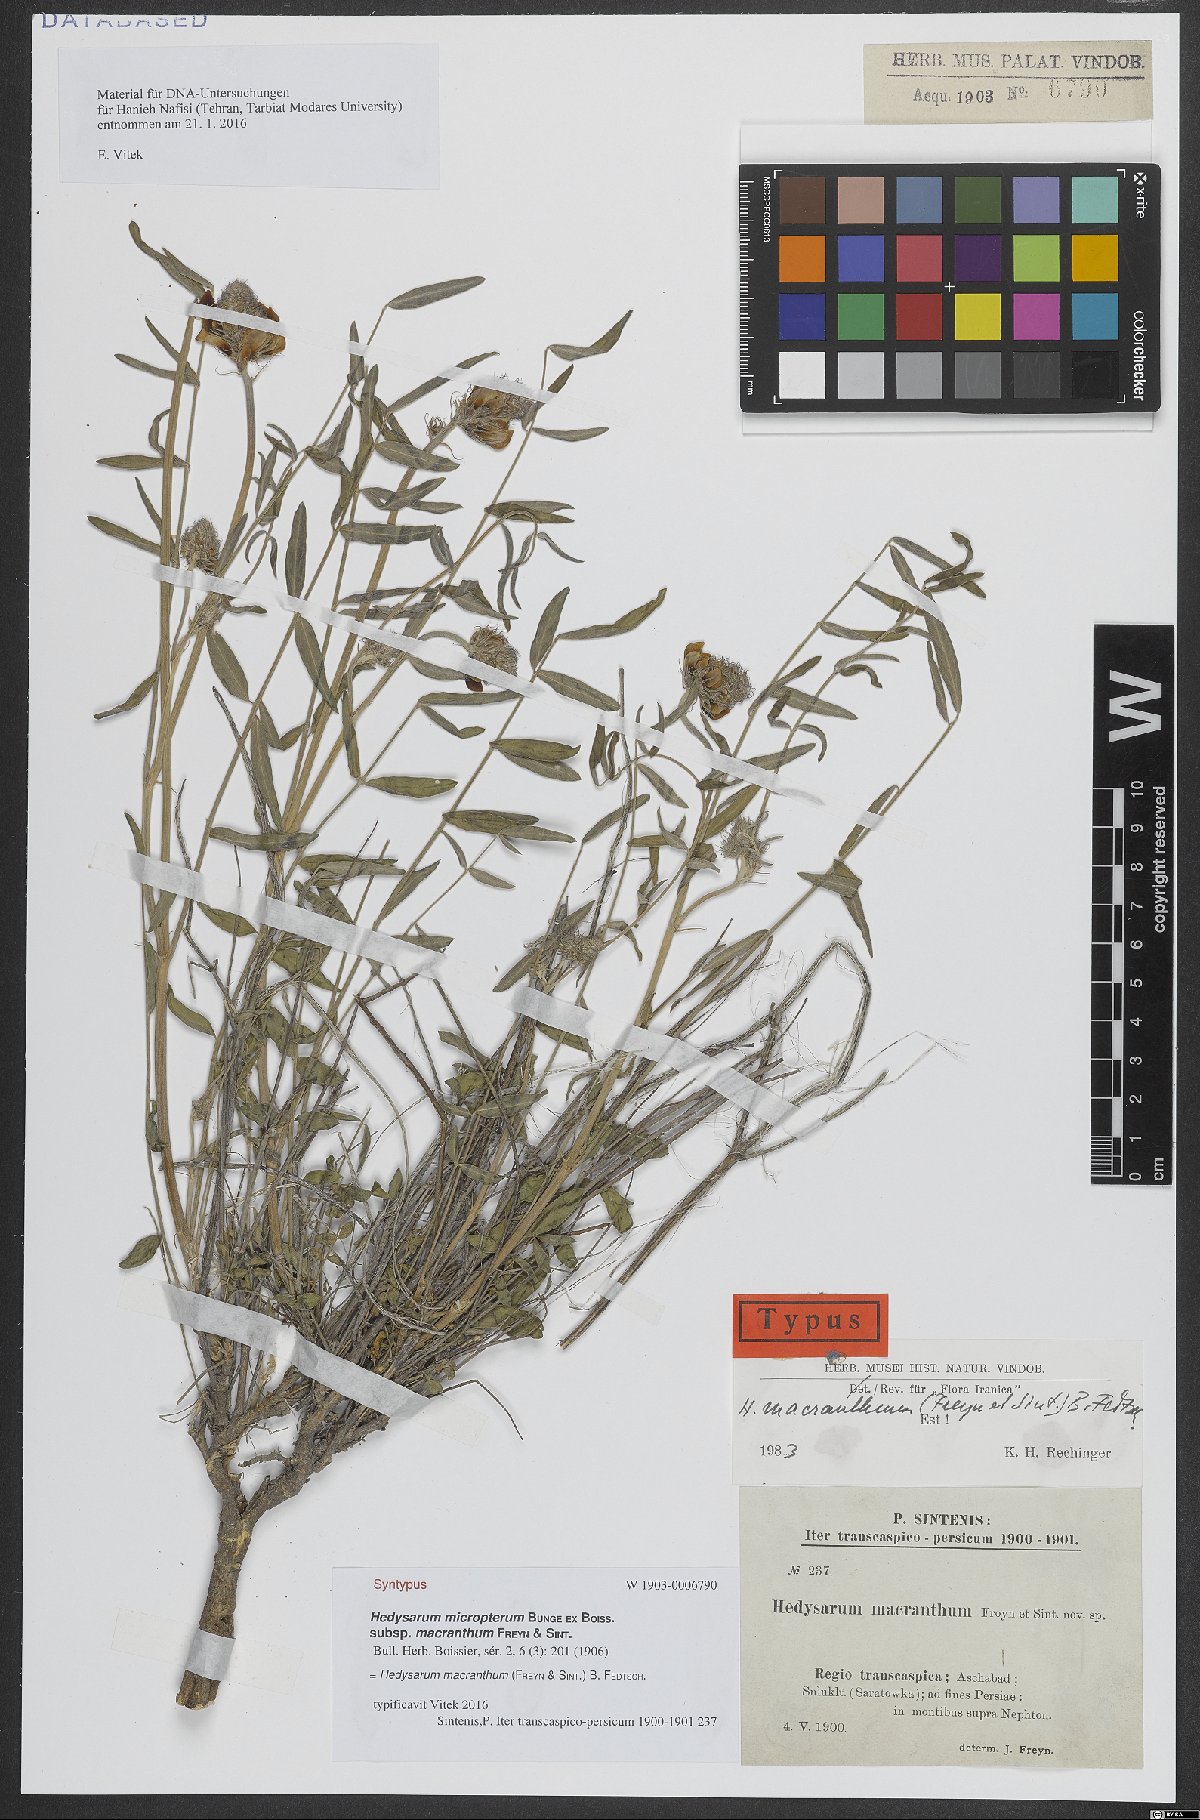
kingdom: Plantae
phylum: Tracheophyta
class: Magnoliopsida
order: Fabales
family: Fabaceae
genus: Hedysarum
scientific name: Hedysarum macranthum
